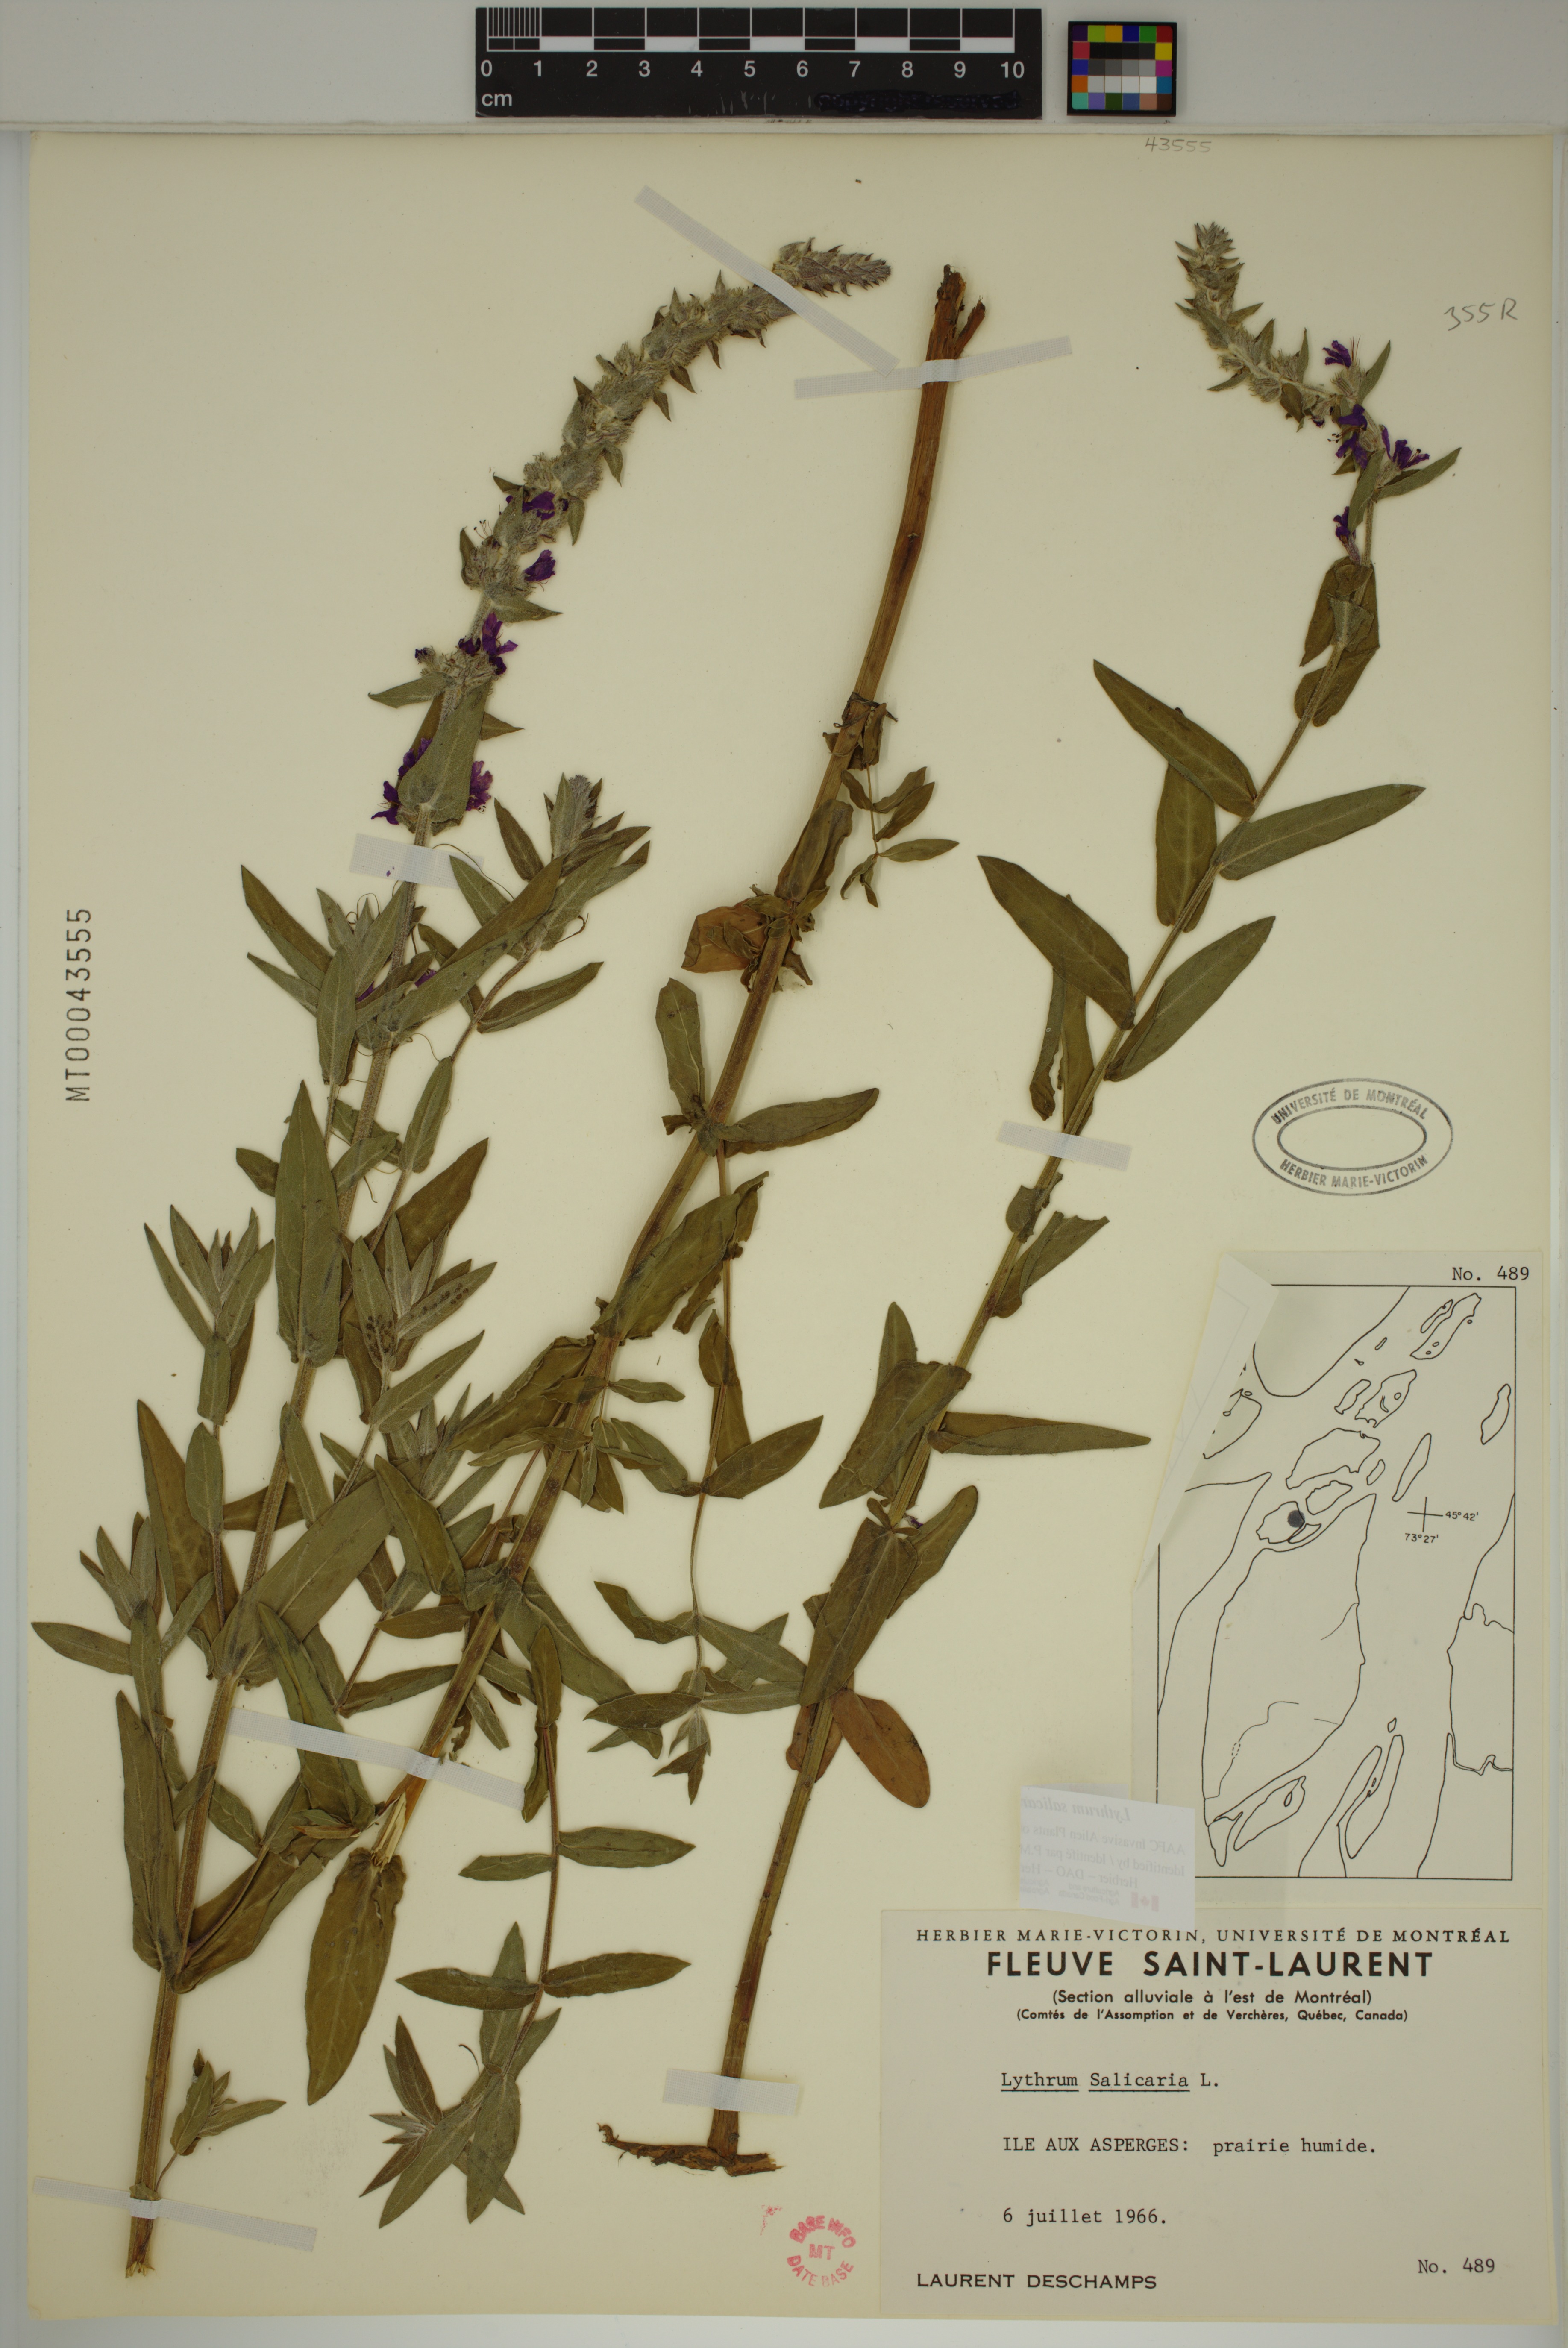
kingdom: Plantae
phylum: Tracheophyta
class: Magnoliopsida
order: Myrtales
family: Lythraceae
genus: Lythrum
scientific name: Lythrum salicaria
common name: Purple loosestrife
